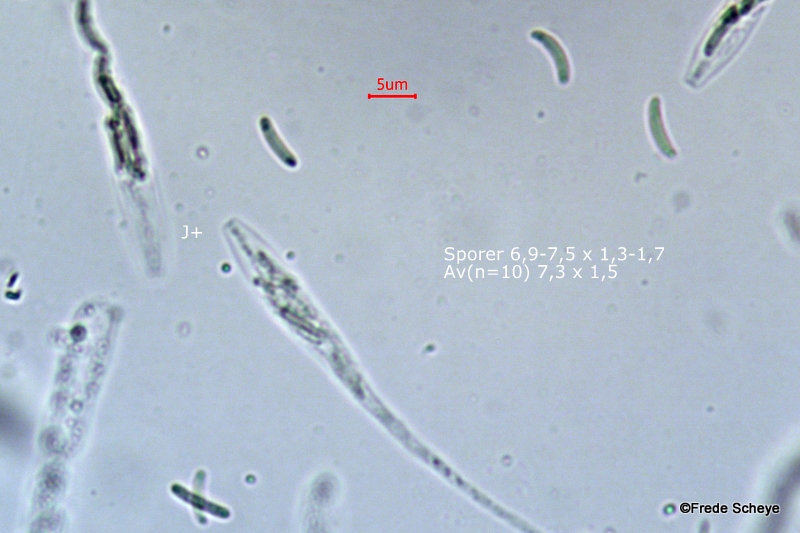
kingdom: Fungi
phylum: Ascomycota
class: Sordariomycetes
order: Xylariales
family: Diatrypaceae
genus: Diatrype
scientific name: Diatrype disciformis
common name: kant-kulskorpe
